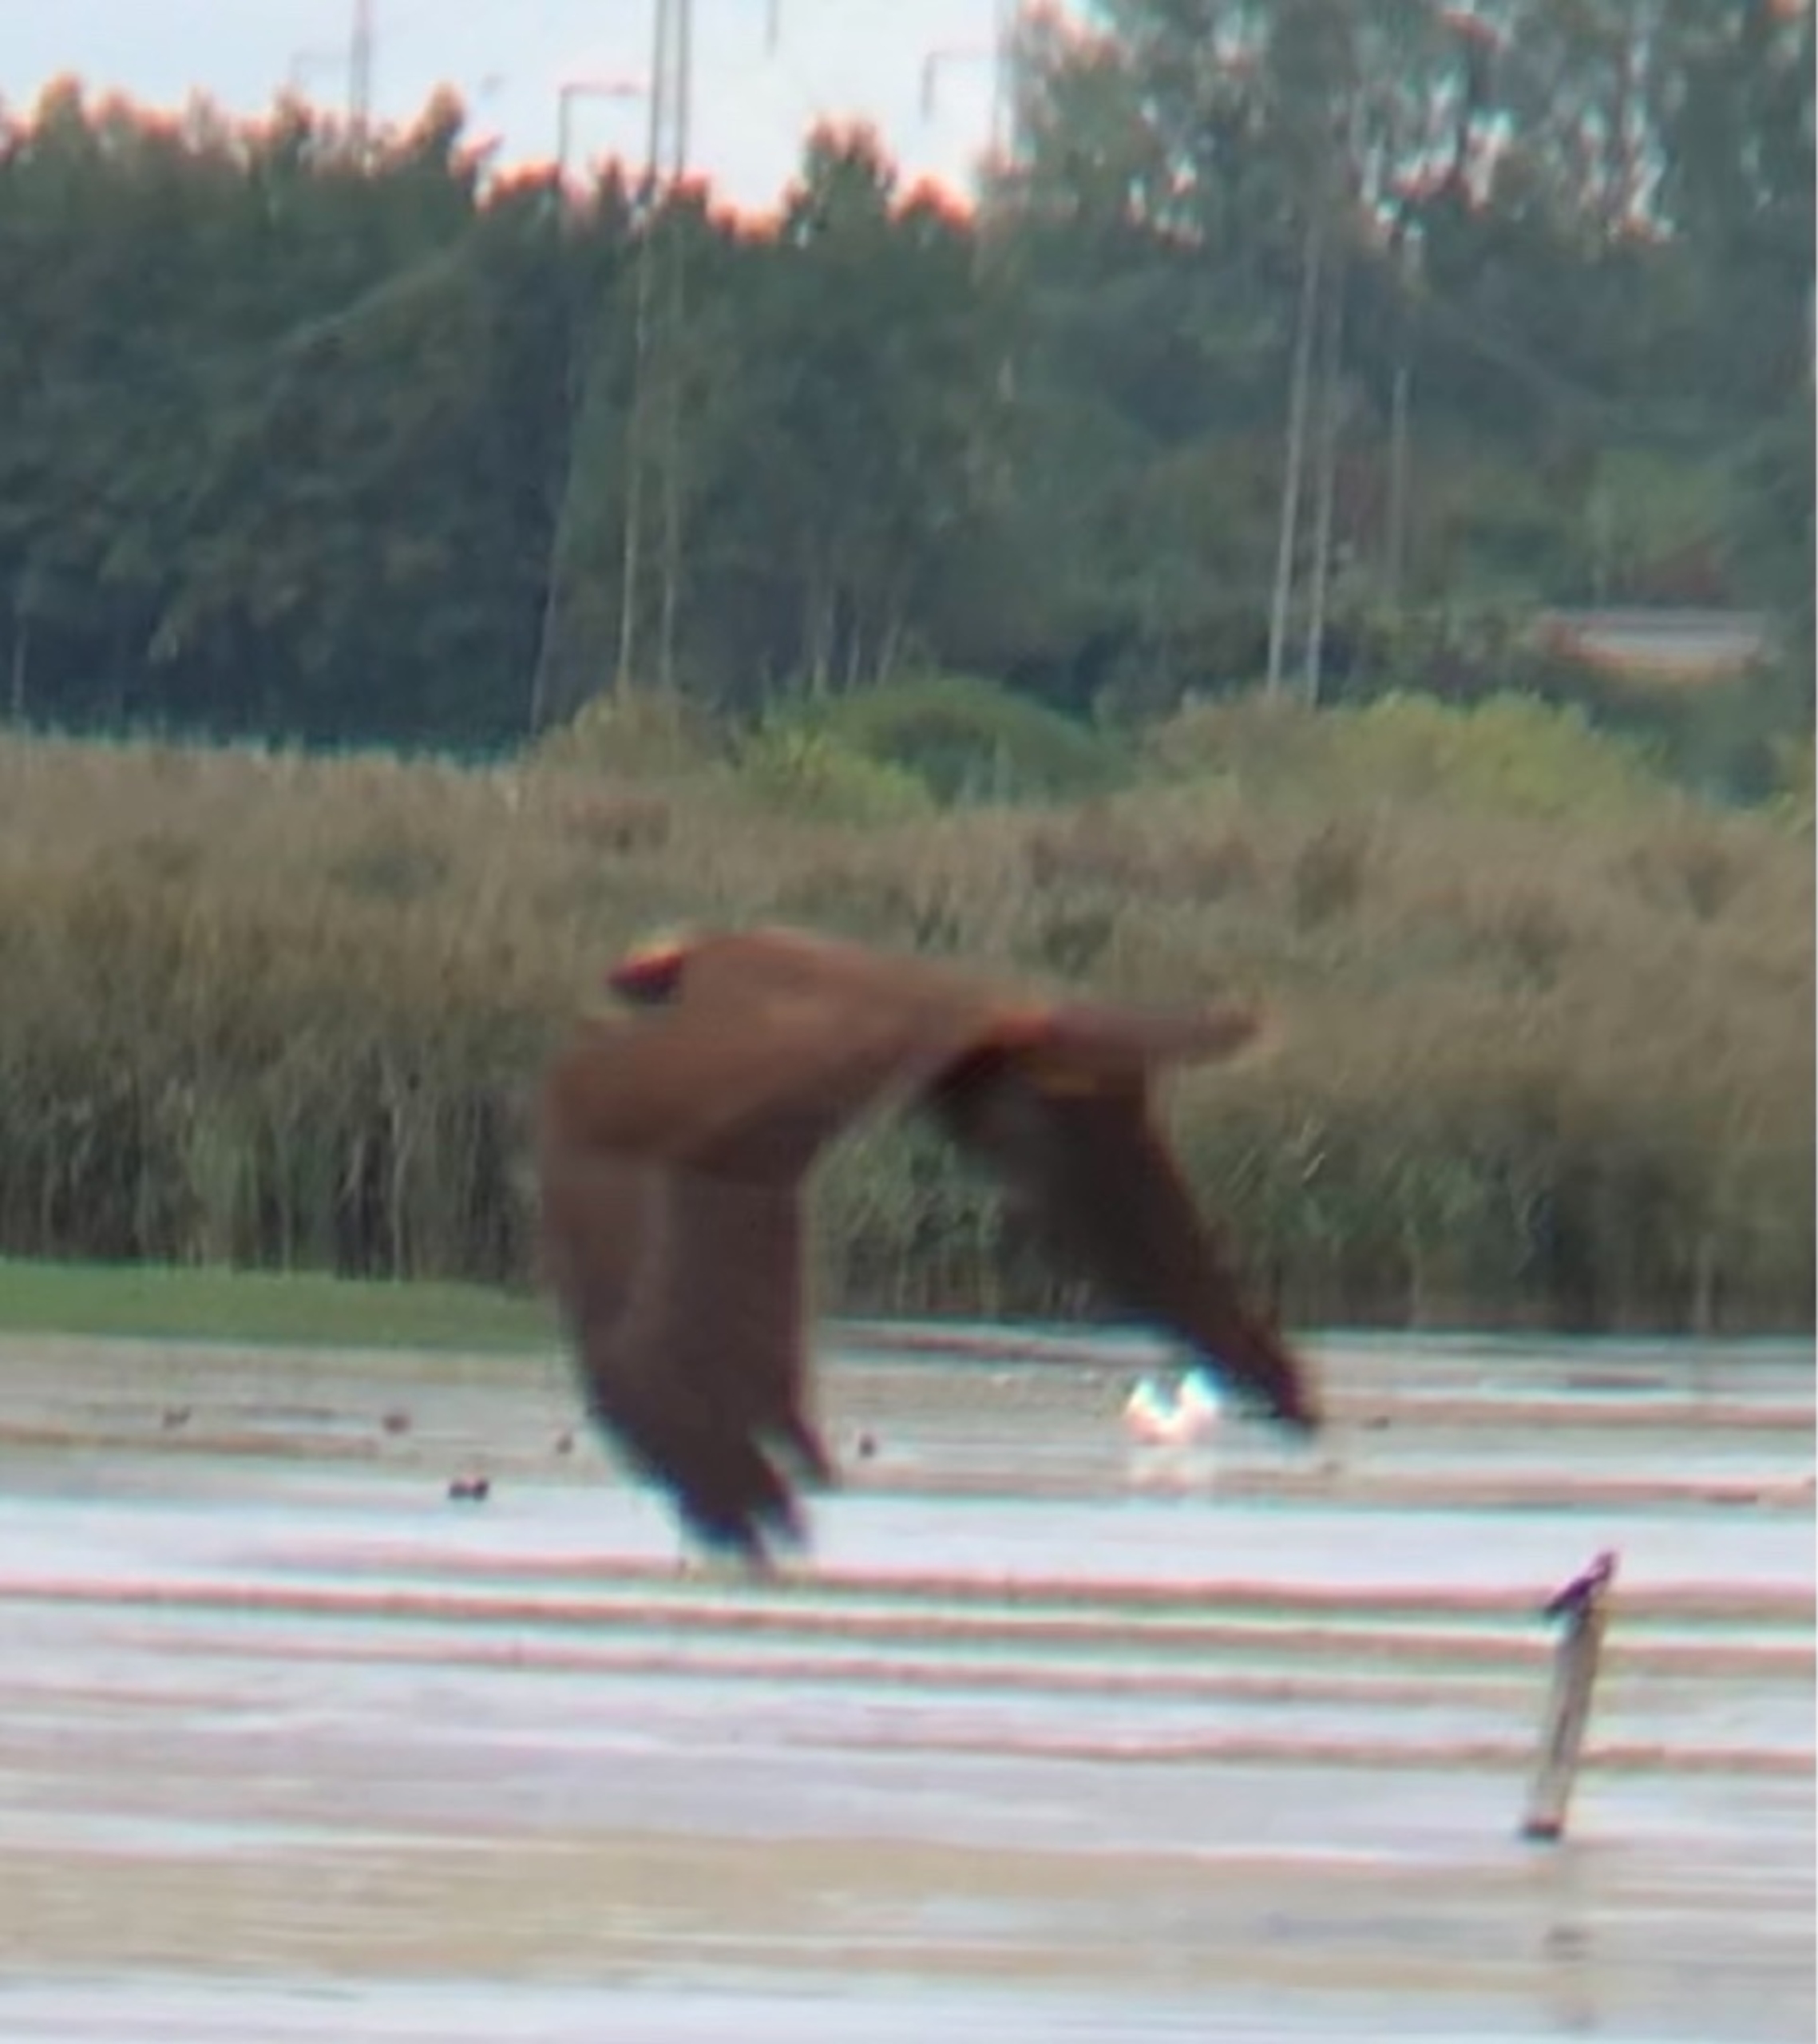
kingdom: Animalia
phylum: Chordata
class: Aves
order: Accipitriformes
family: Accipitridae
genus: Circus
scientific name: Circus aeruginosus
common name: Rørhøg
